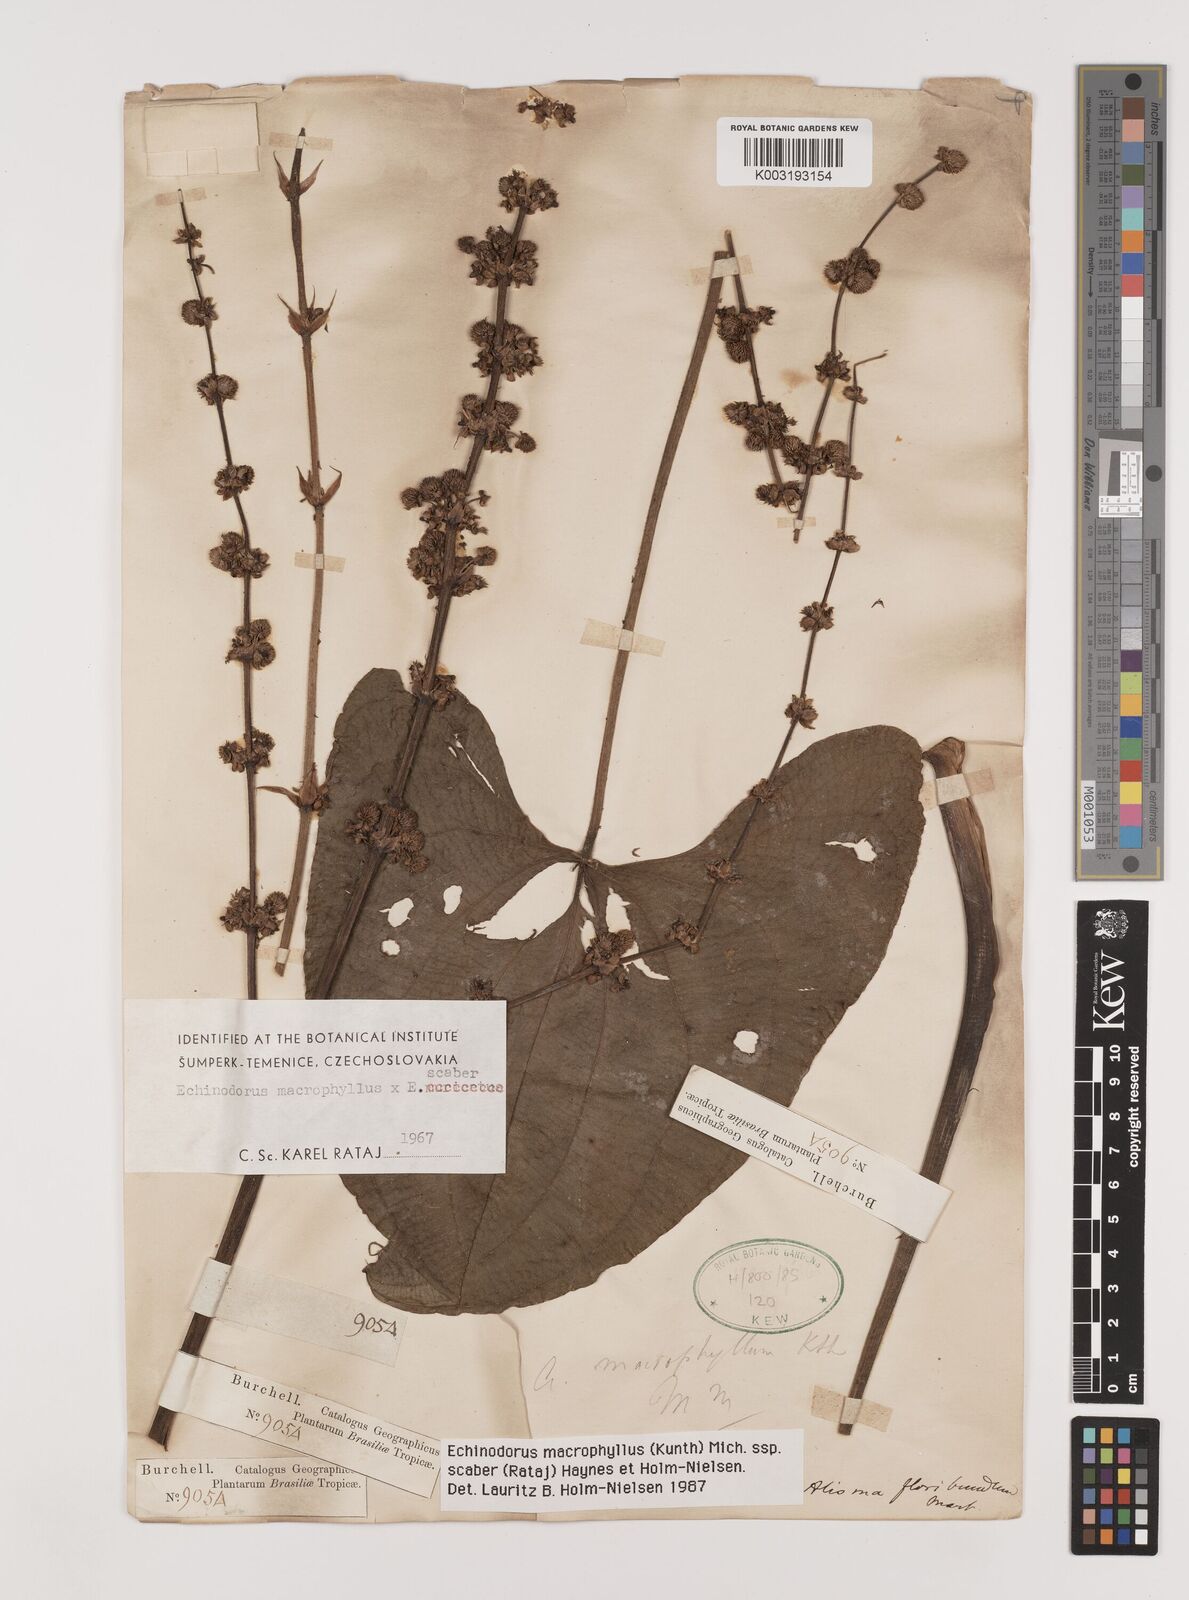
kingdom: Plantae
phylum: Tracheophyta
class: Liliopsida
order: Alismatales
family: Alismataceae
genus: Aquarius
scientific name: Aquarius macrophyllus
